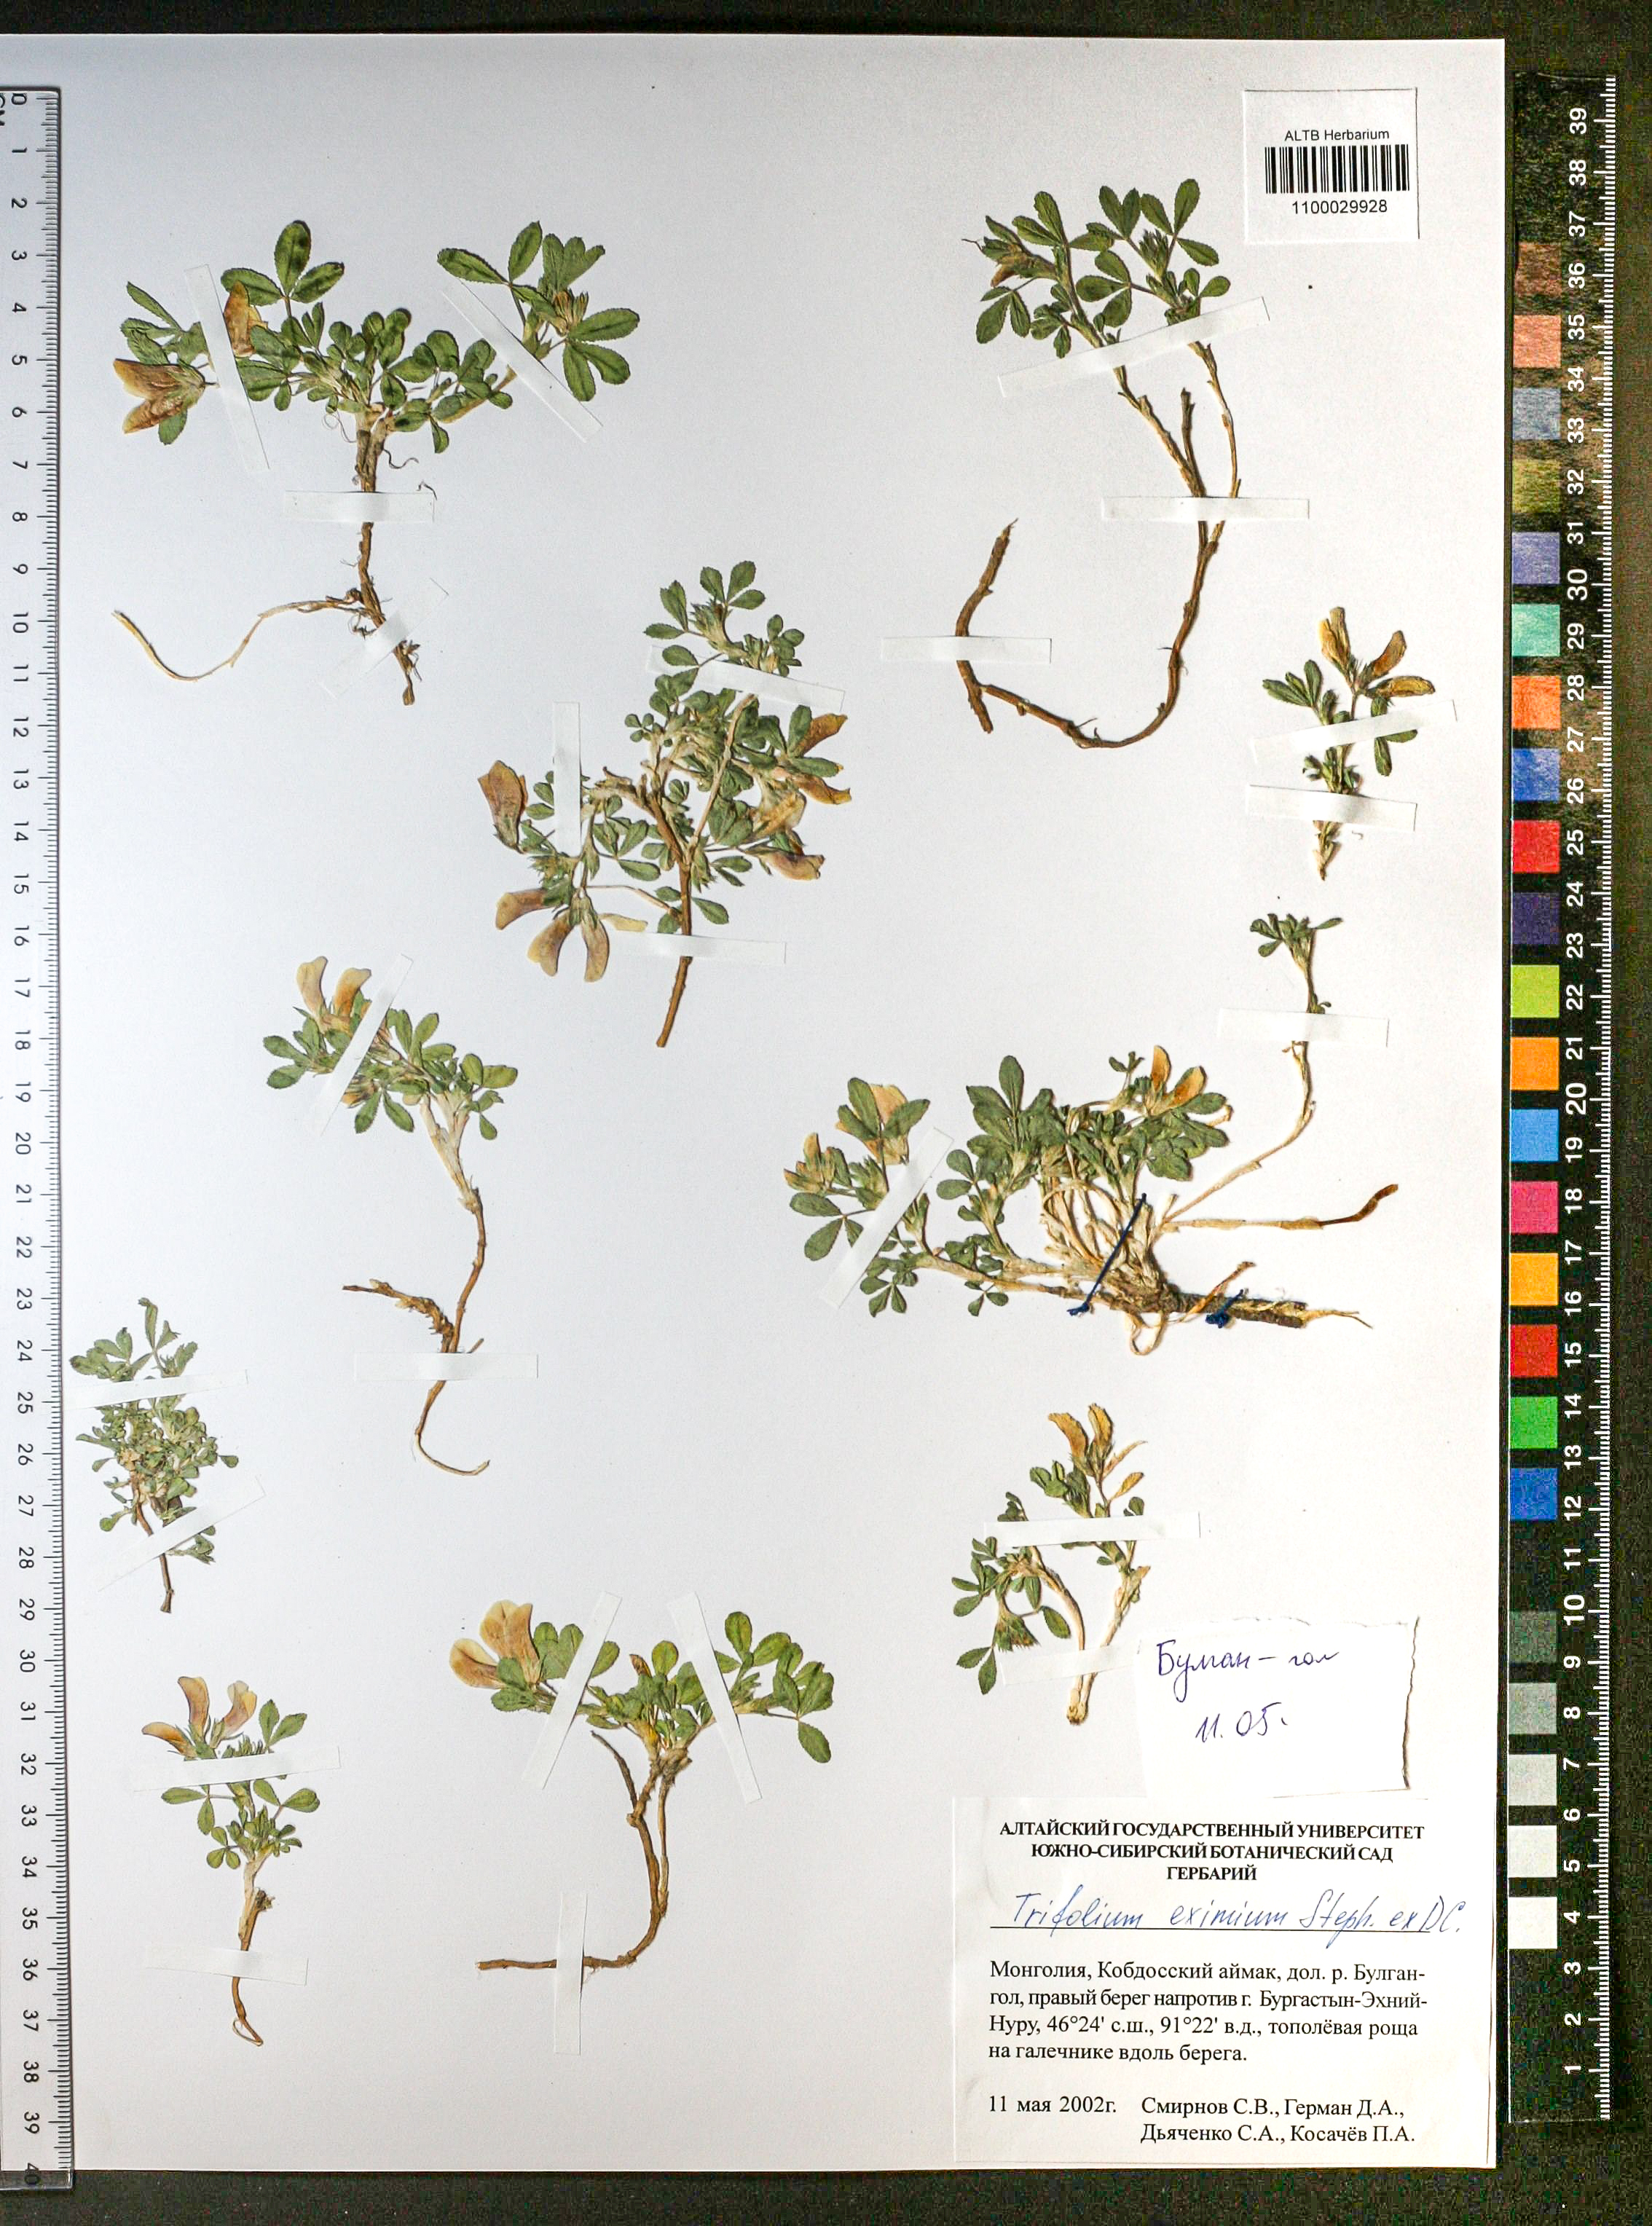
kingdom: Plantae
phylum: Tracheophyta
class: Magnoliopsida
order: Fabales
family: Fabaceae
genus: Trifolium
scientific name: Trifolium eximium
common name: Excellent clover
